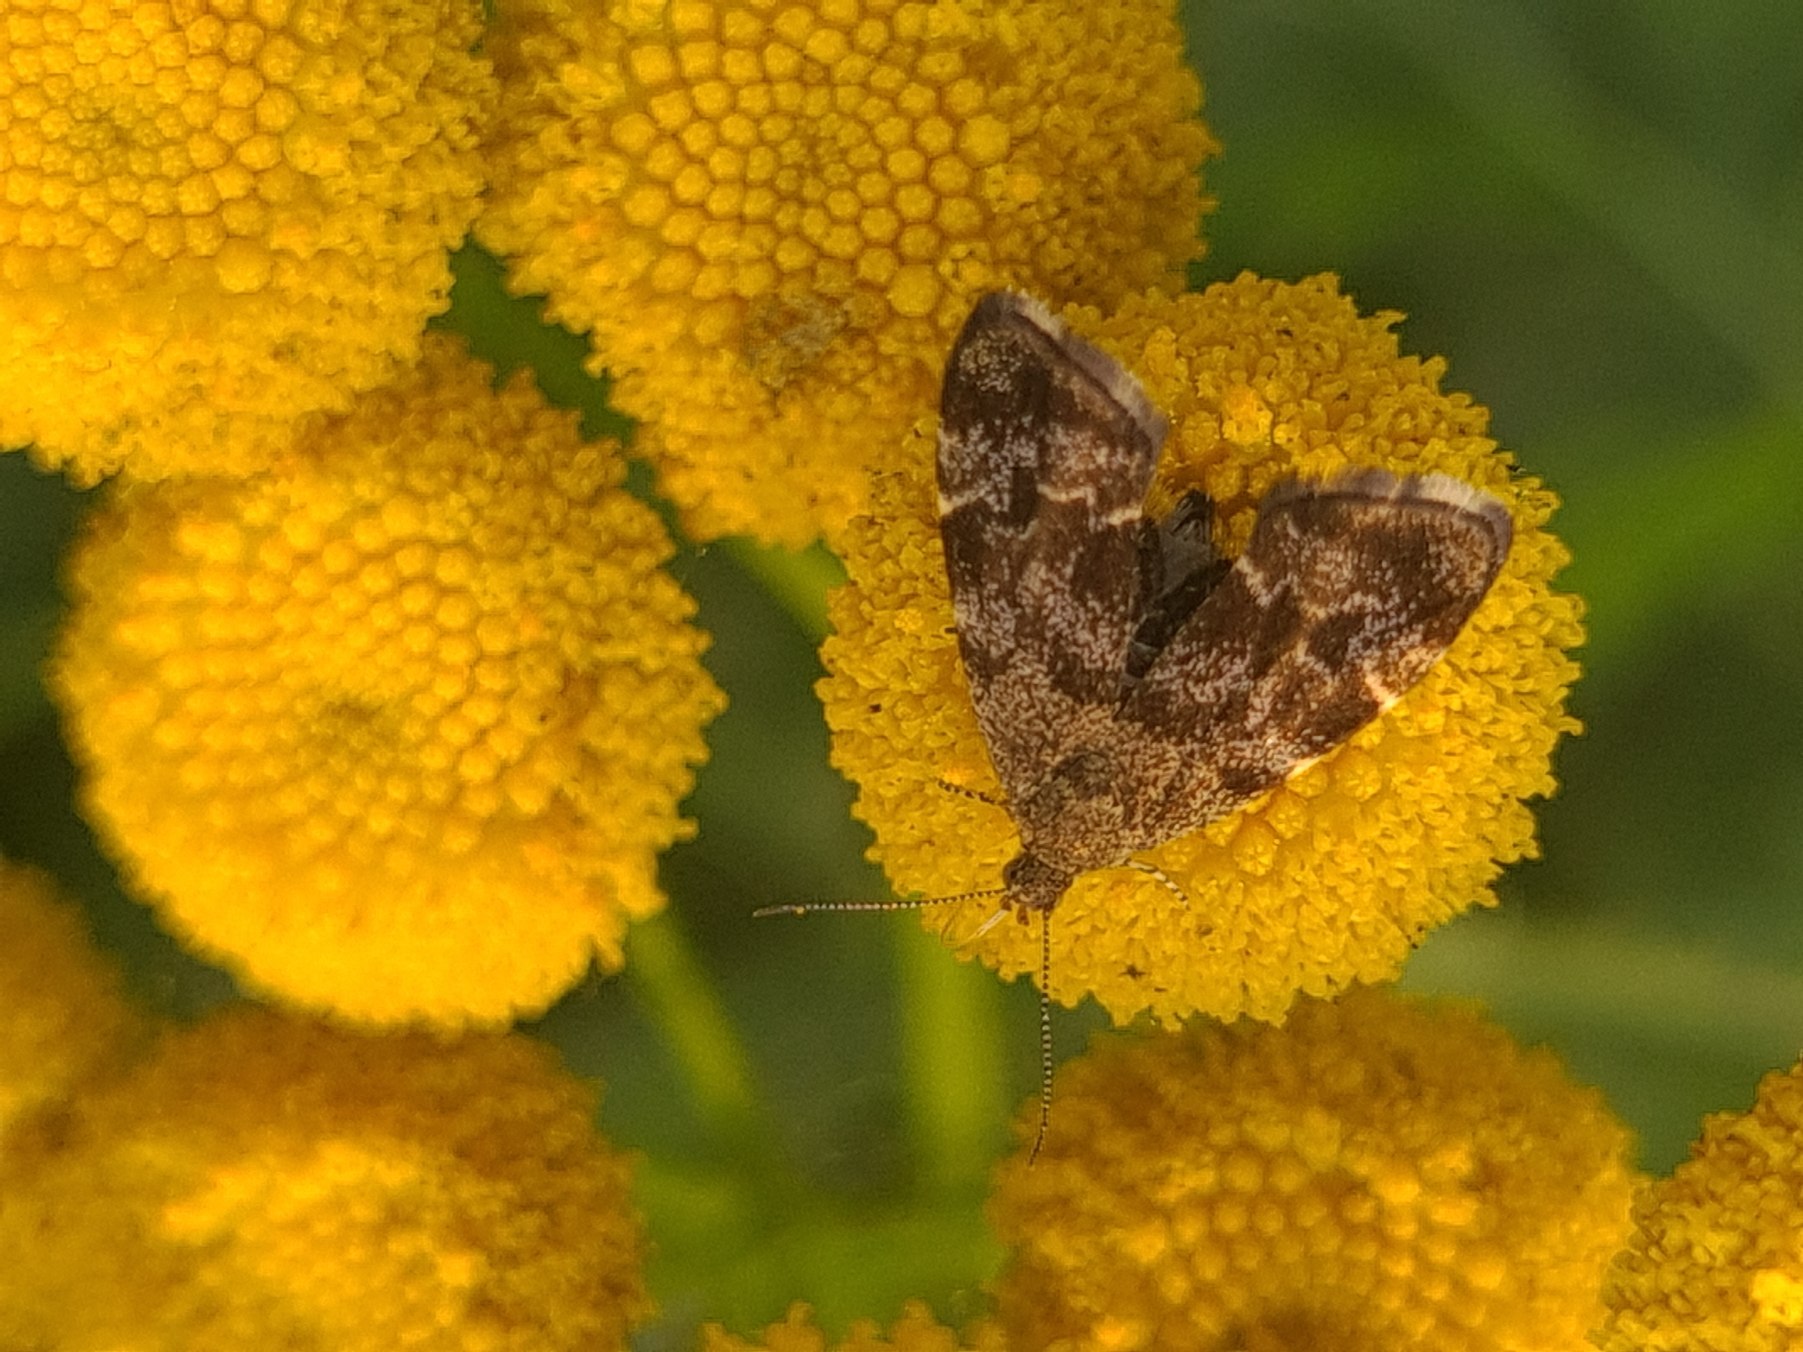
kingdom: Animalia
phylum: Arthropoda
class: Insecta
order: Lepidoptera
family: Choreutidae
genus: Anthophila
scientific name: Anthophila fabriciana
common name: Bredvinget nældevikler
